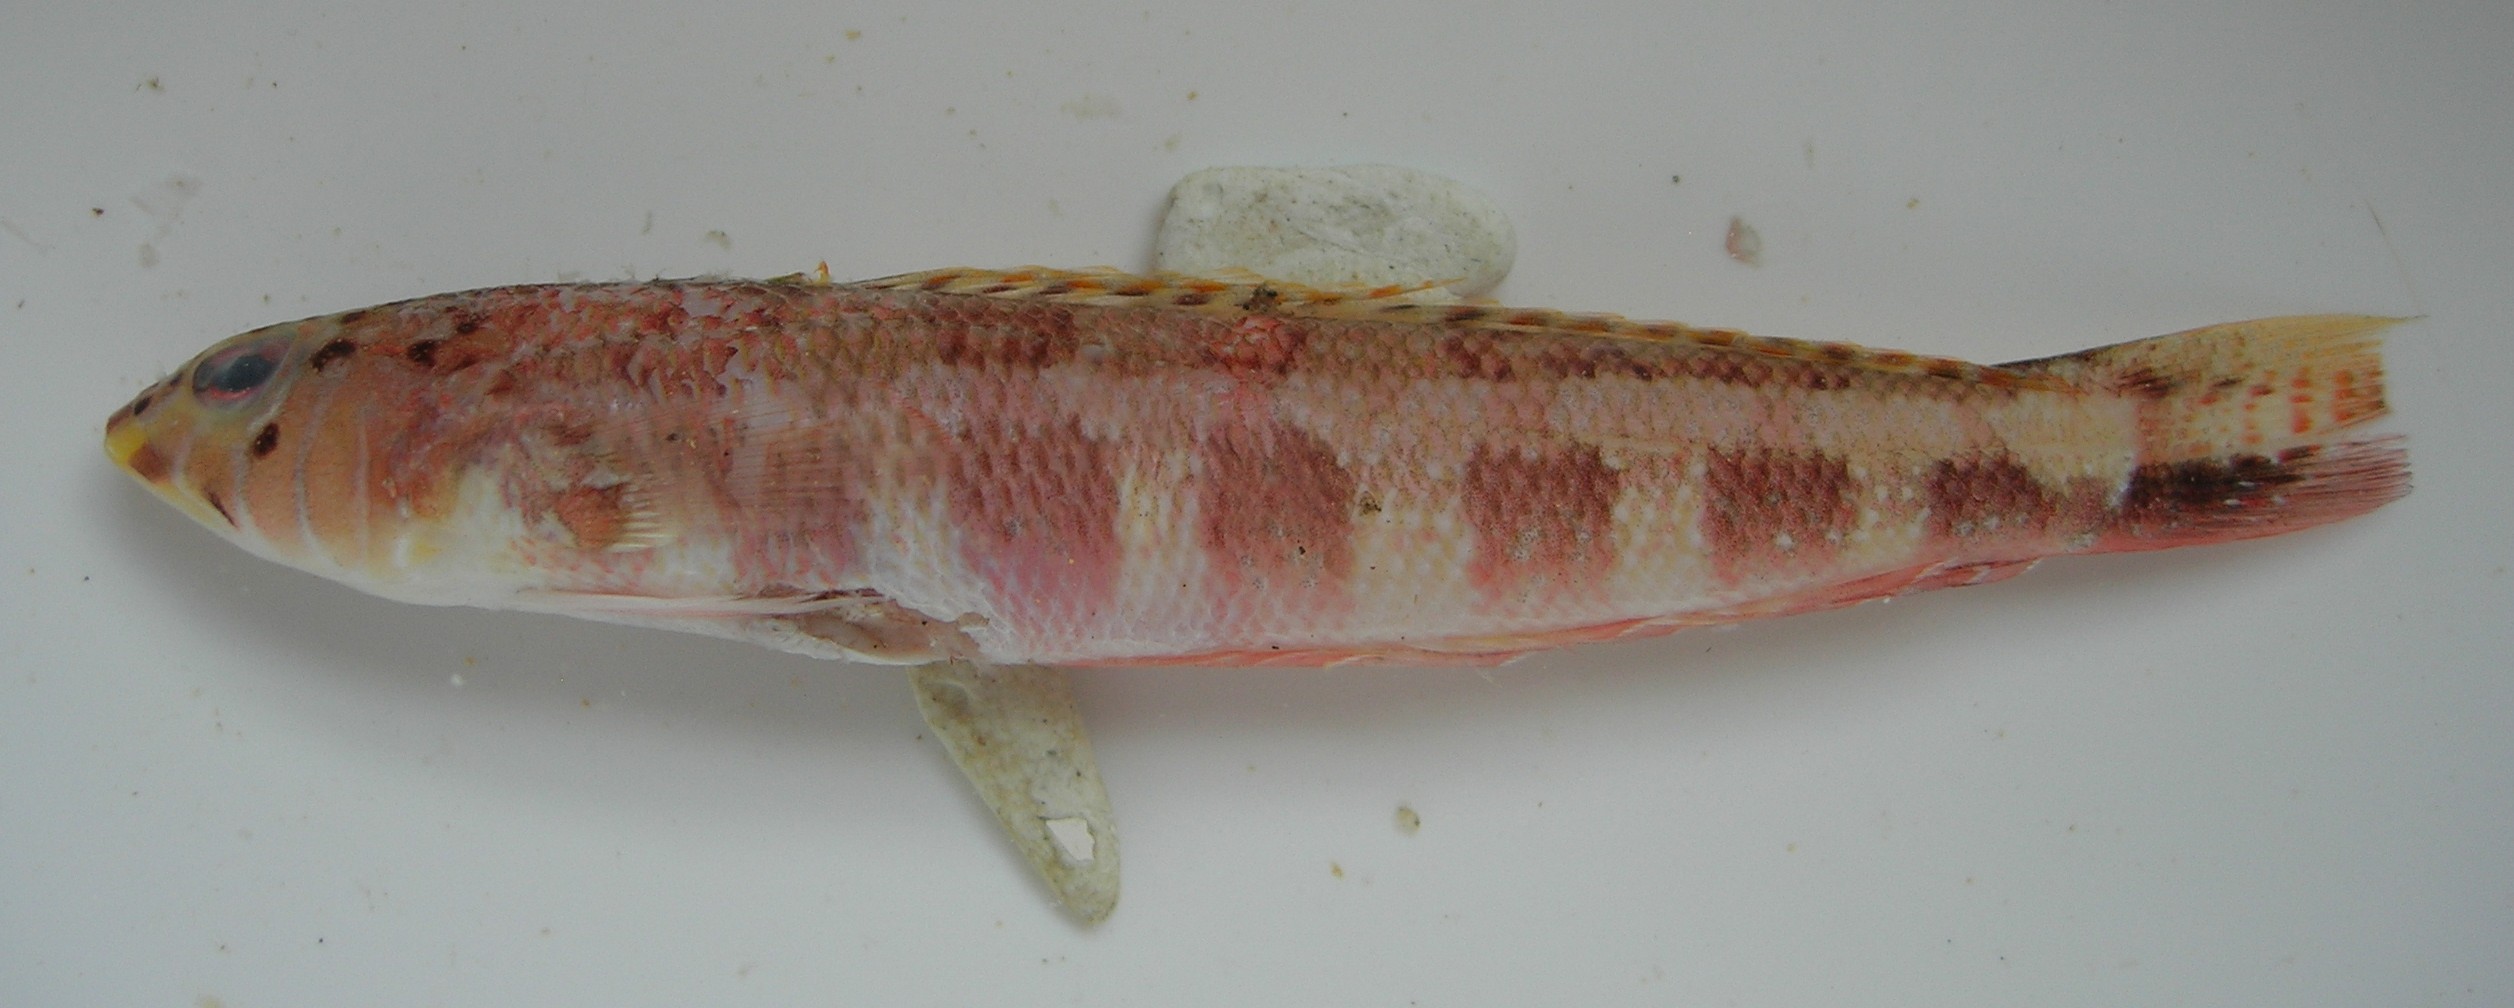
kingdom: Animalia
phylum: Chordata
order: Perciformes
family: Pinguipedidae
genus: Parapercis
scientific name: Parapercis maculata
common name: Harlequin sandperch
